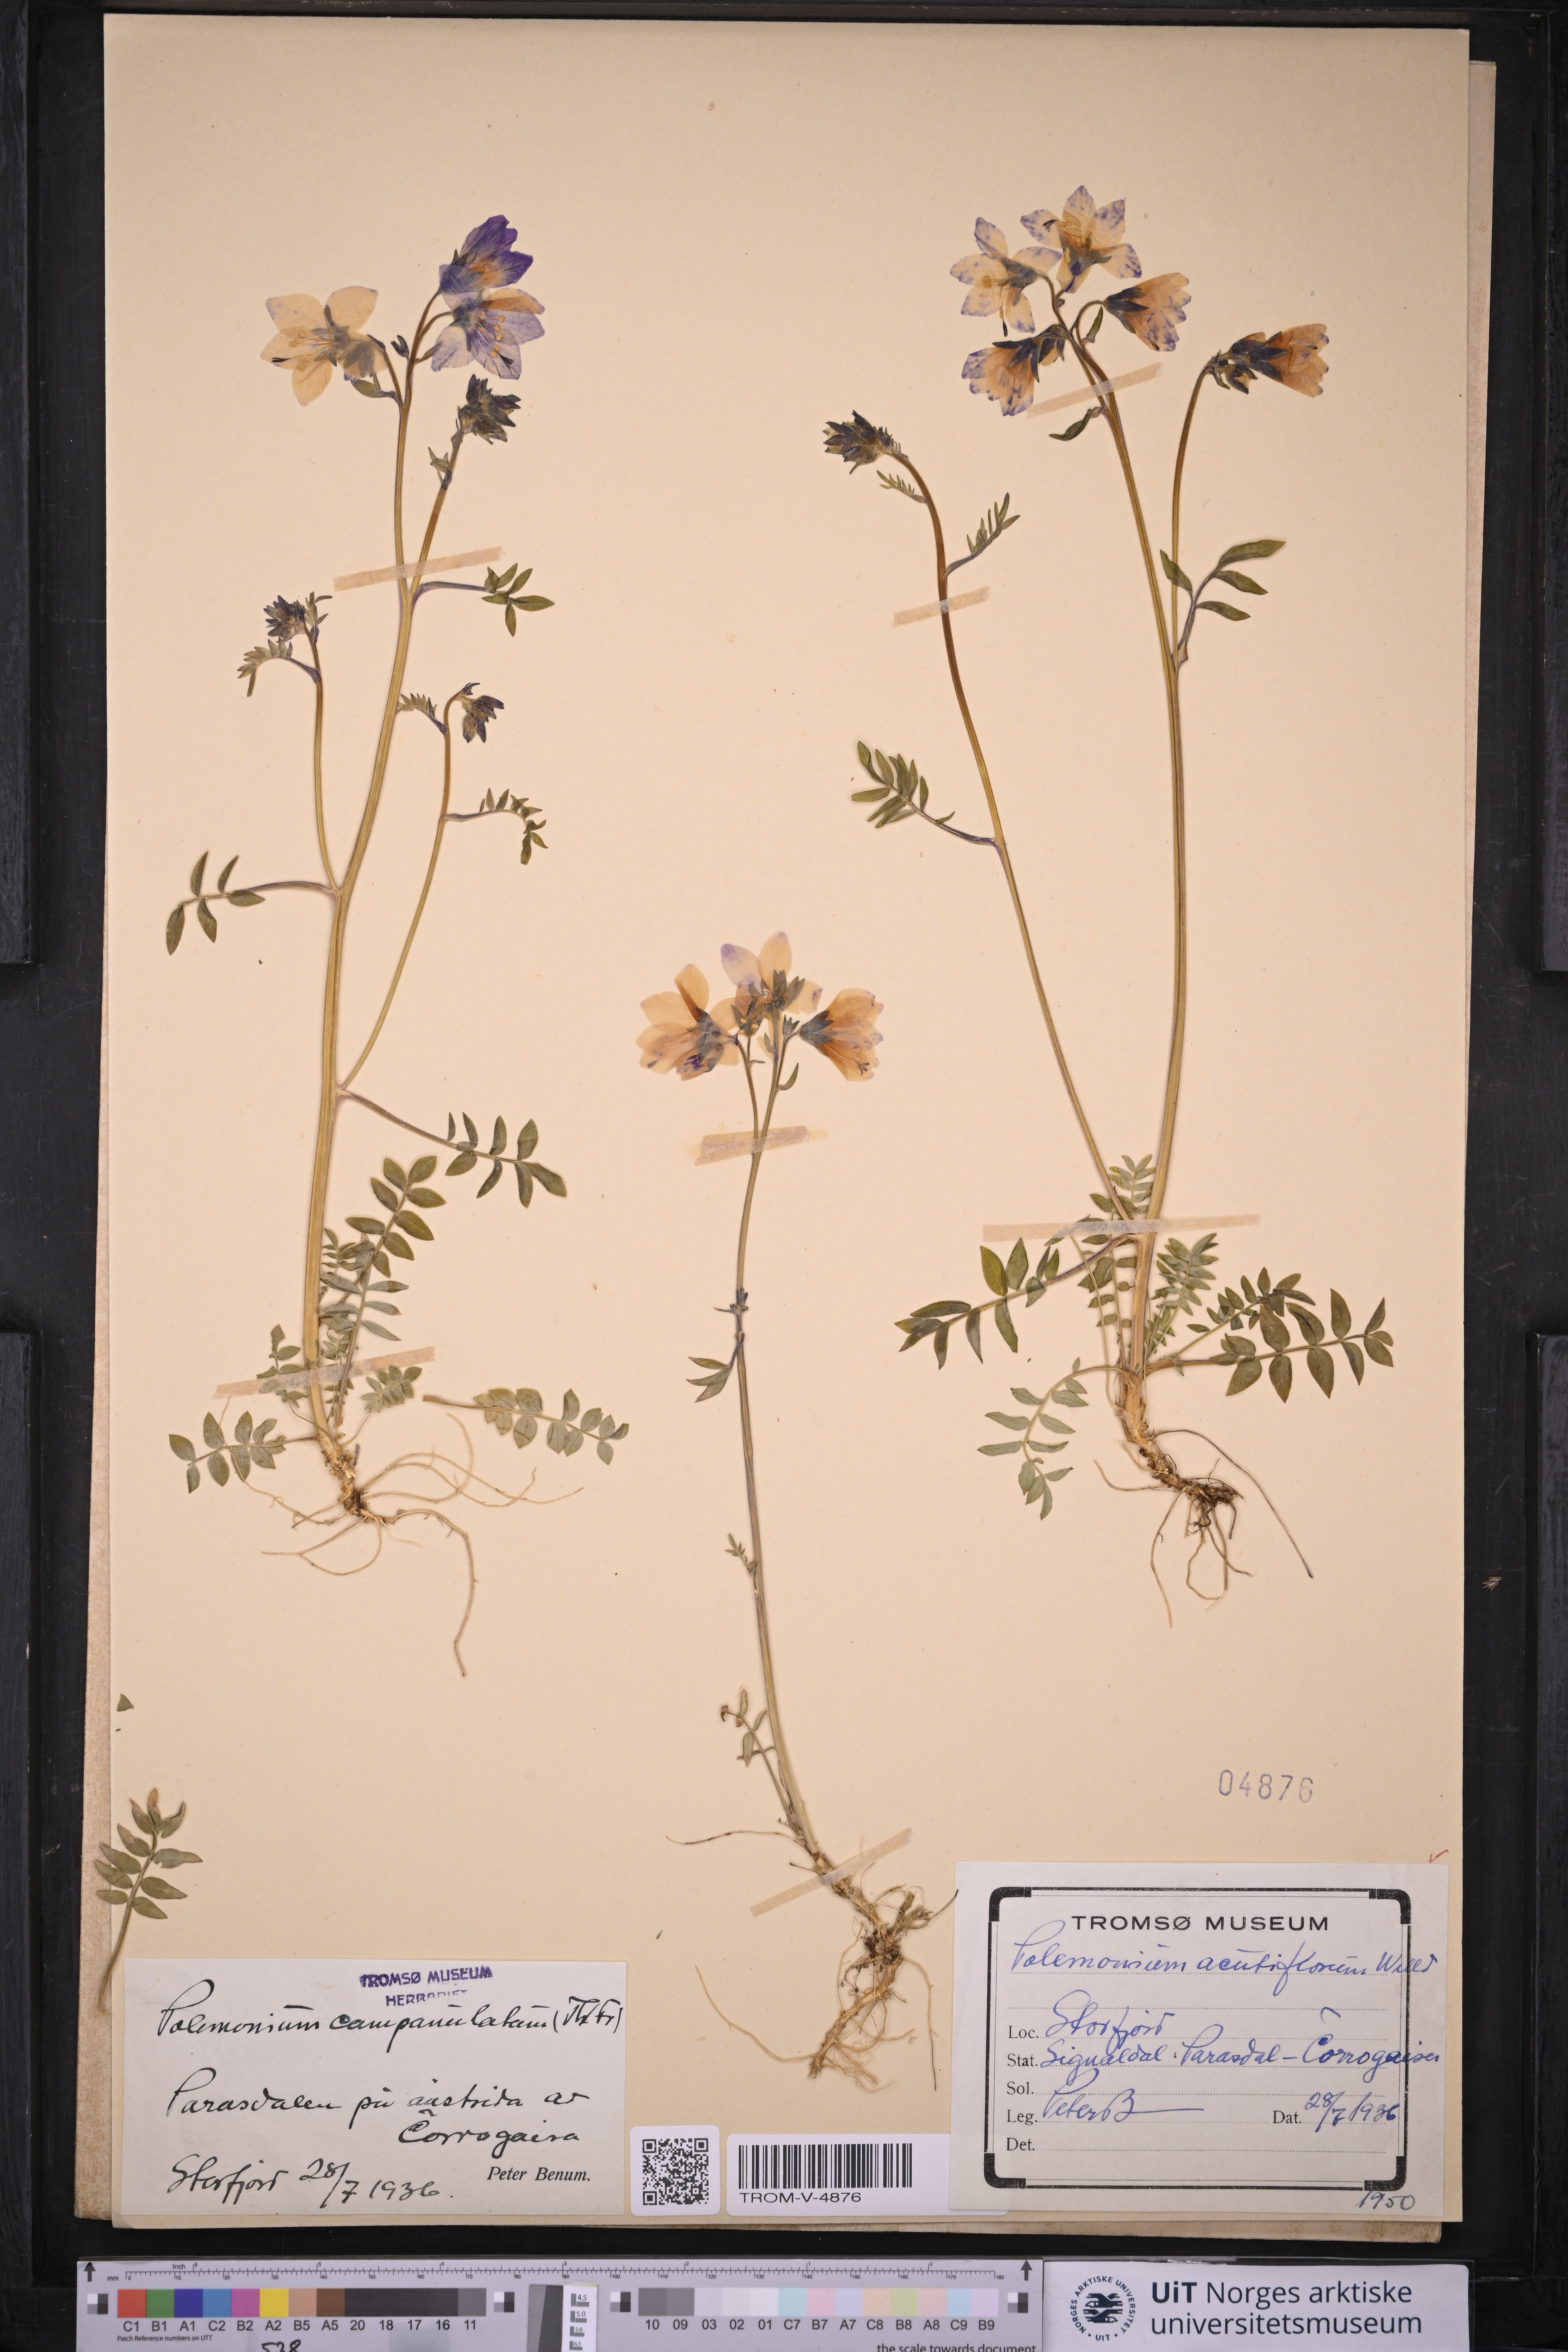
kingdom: Plantae
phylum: Tracheophyta
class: Magnoliopsida
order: Ericales
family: Polemoniaceae
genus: Polemonium
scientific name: Polemonium villosum
